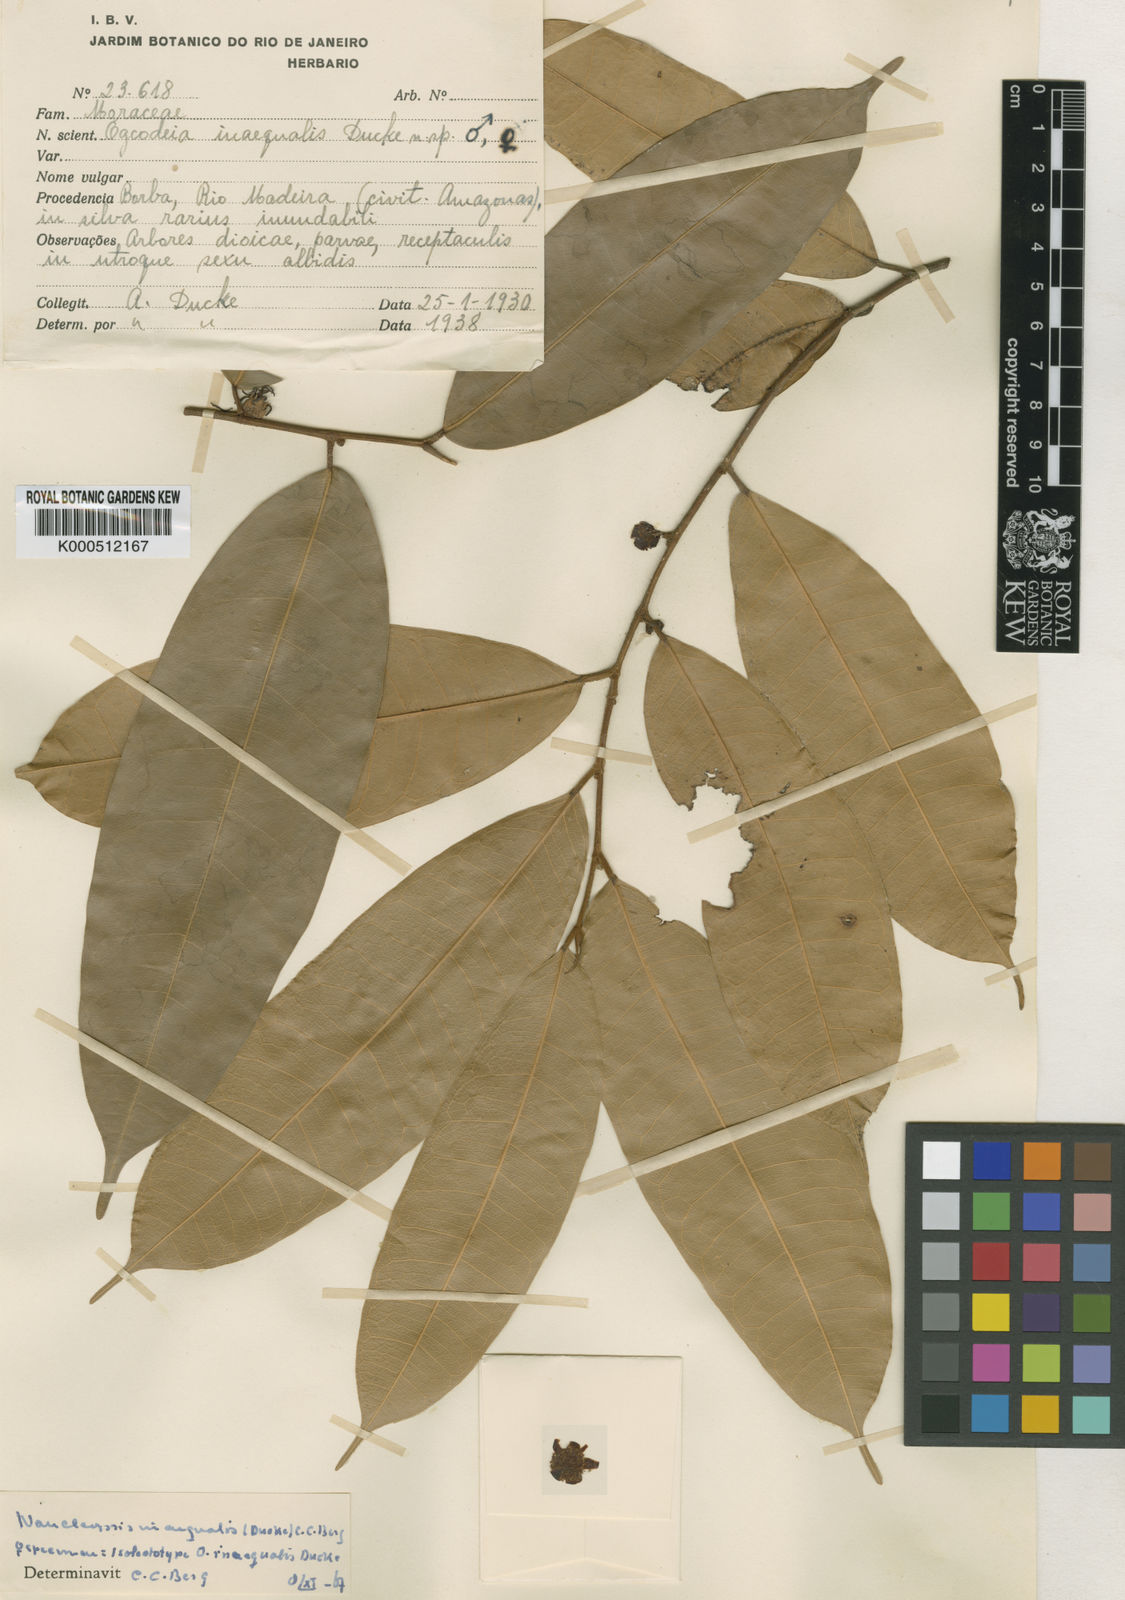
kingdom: Plantae
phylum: Tracheophyta
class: Magnoliopsida
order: Rosales
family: Moraceae
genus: Naucleopsis
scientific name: Naucleopsis inaequalis
